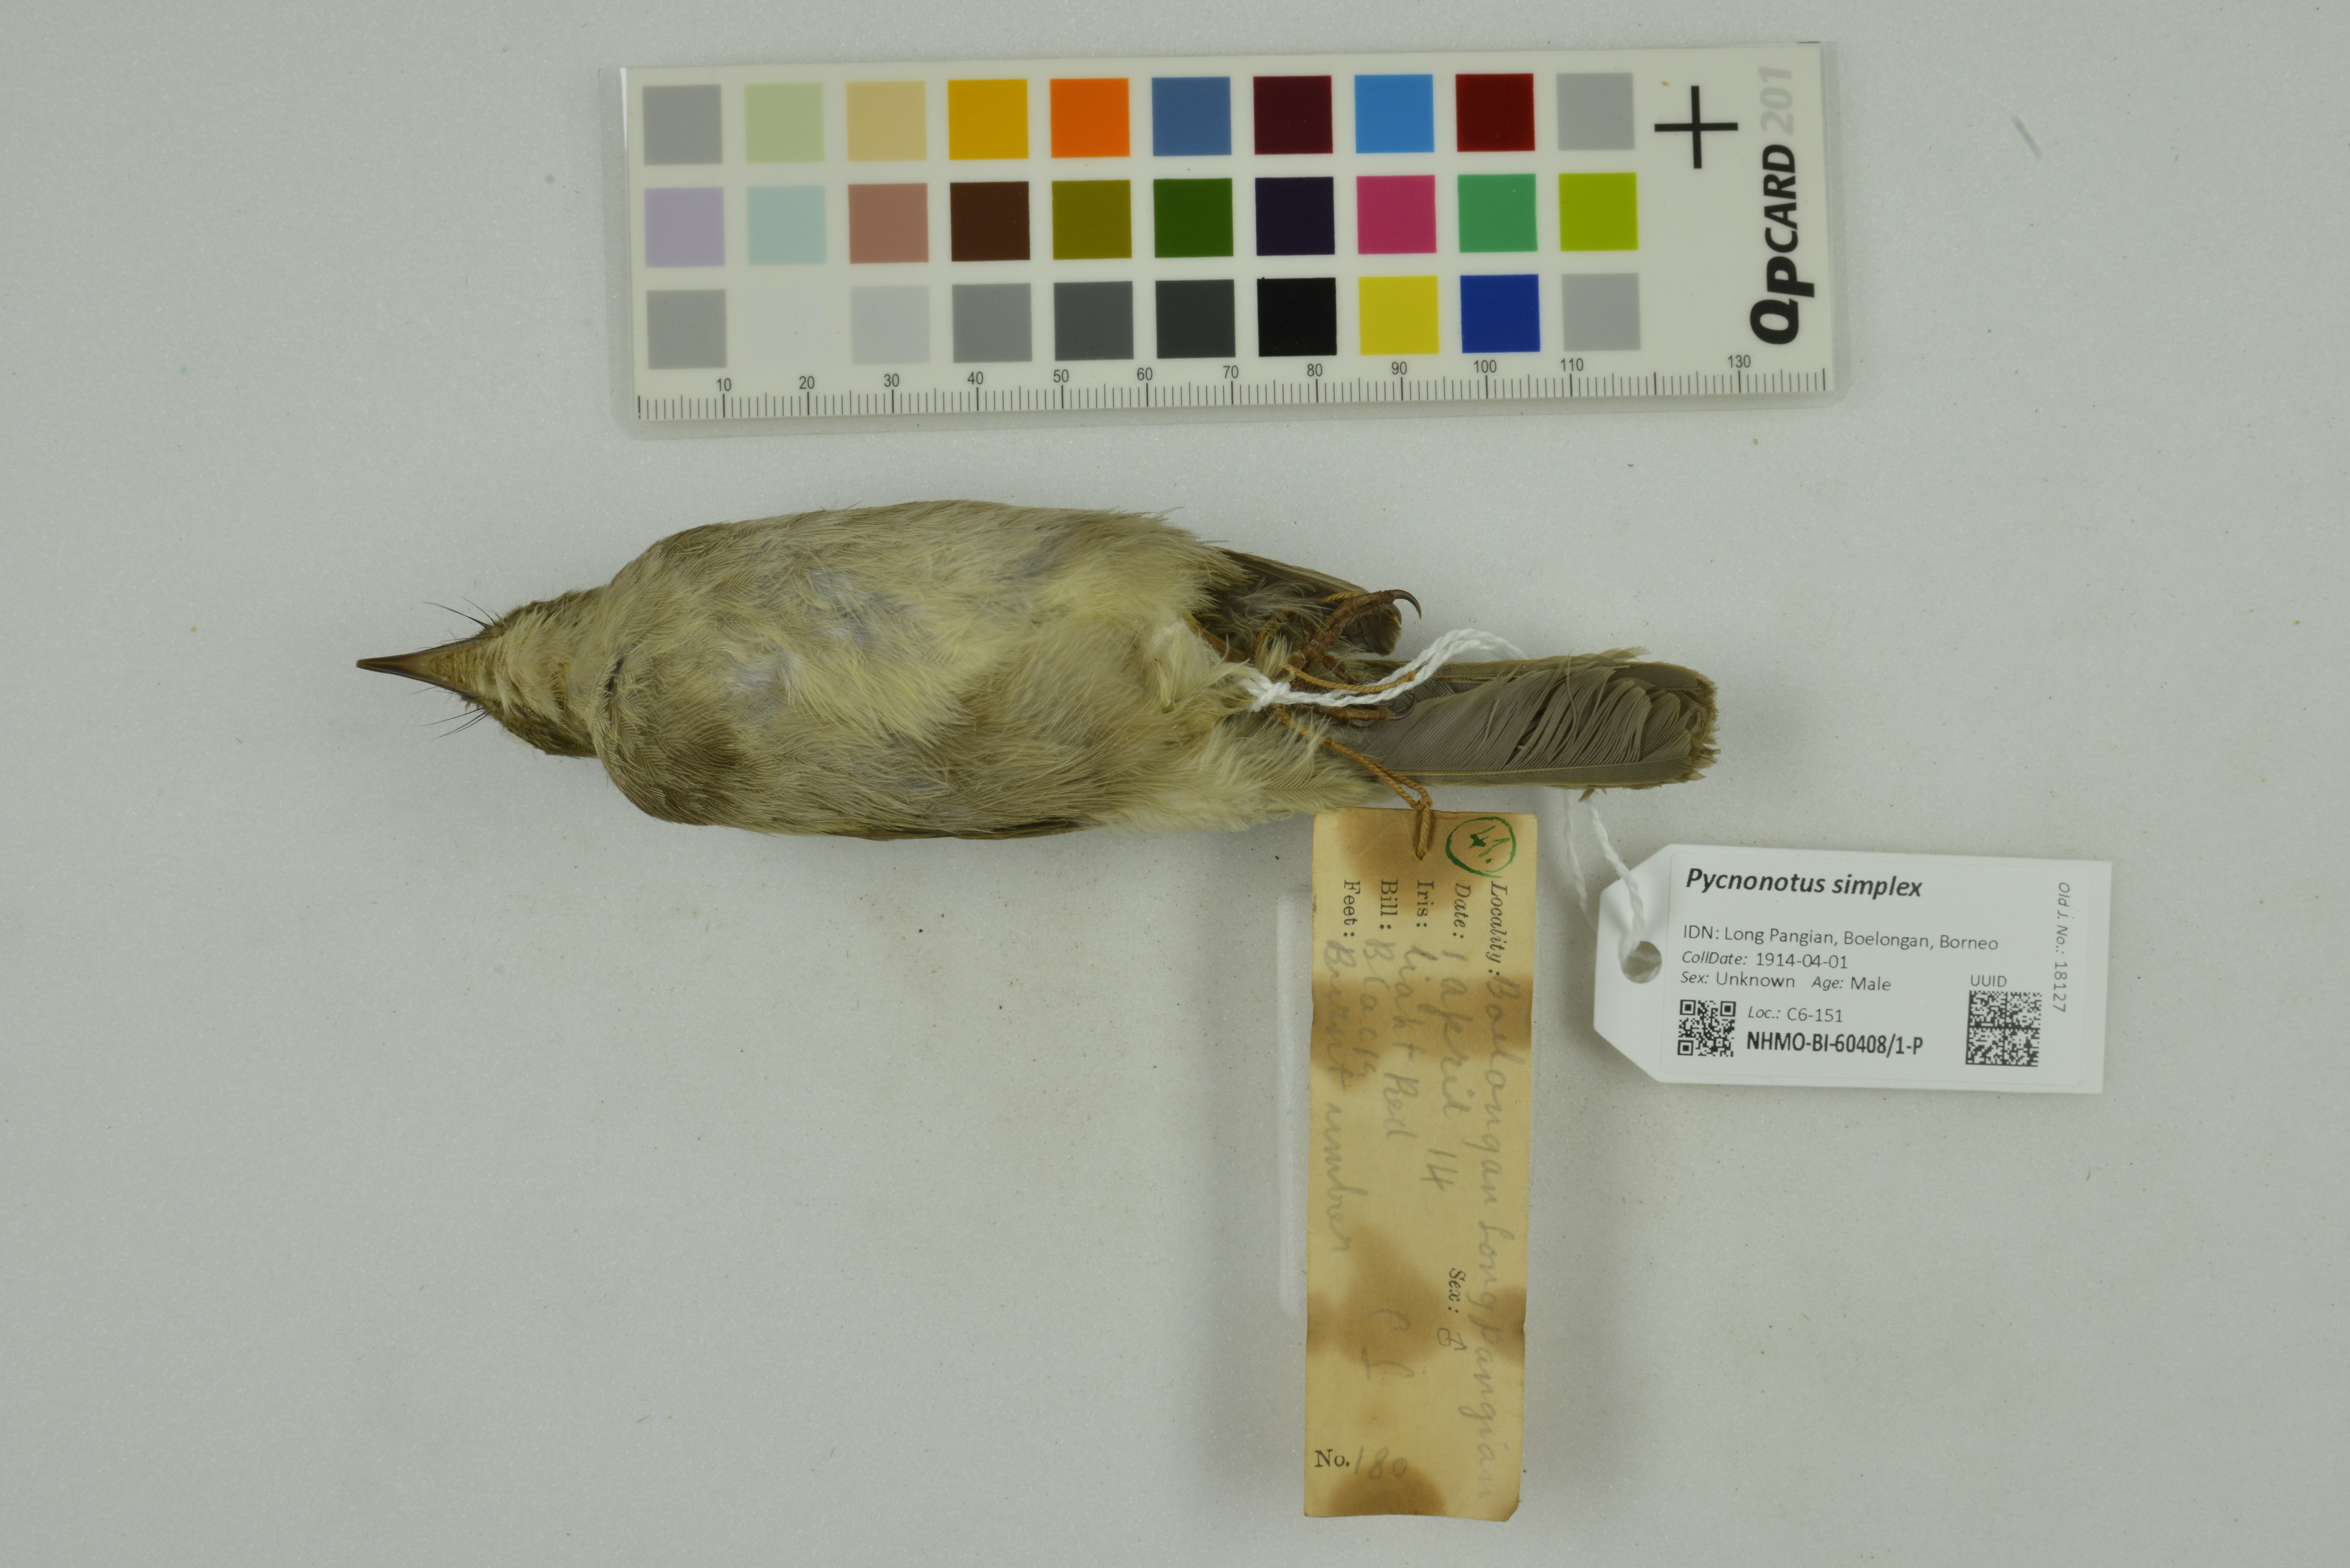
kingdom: Animalia
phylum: Chordata
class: Aves
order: Passeriformes
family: Pycnonotidae
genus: Pycnonotus
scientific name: Pycnonotus simplex
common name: Cream-vented bulbul
